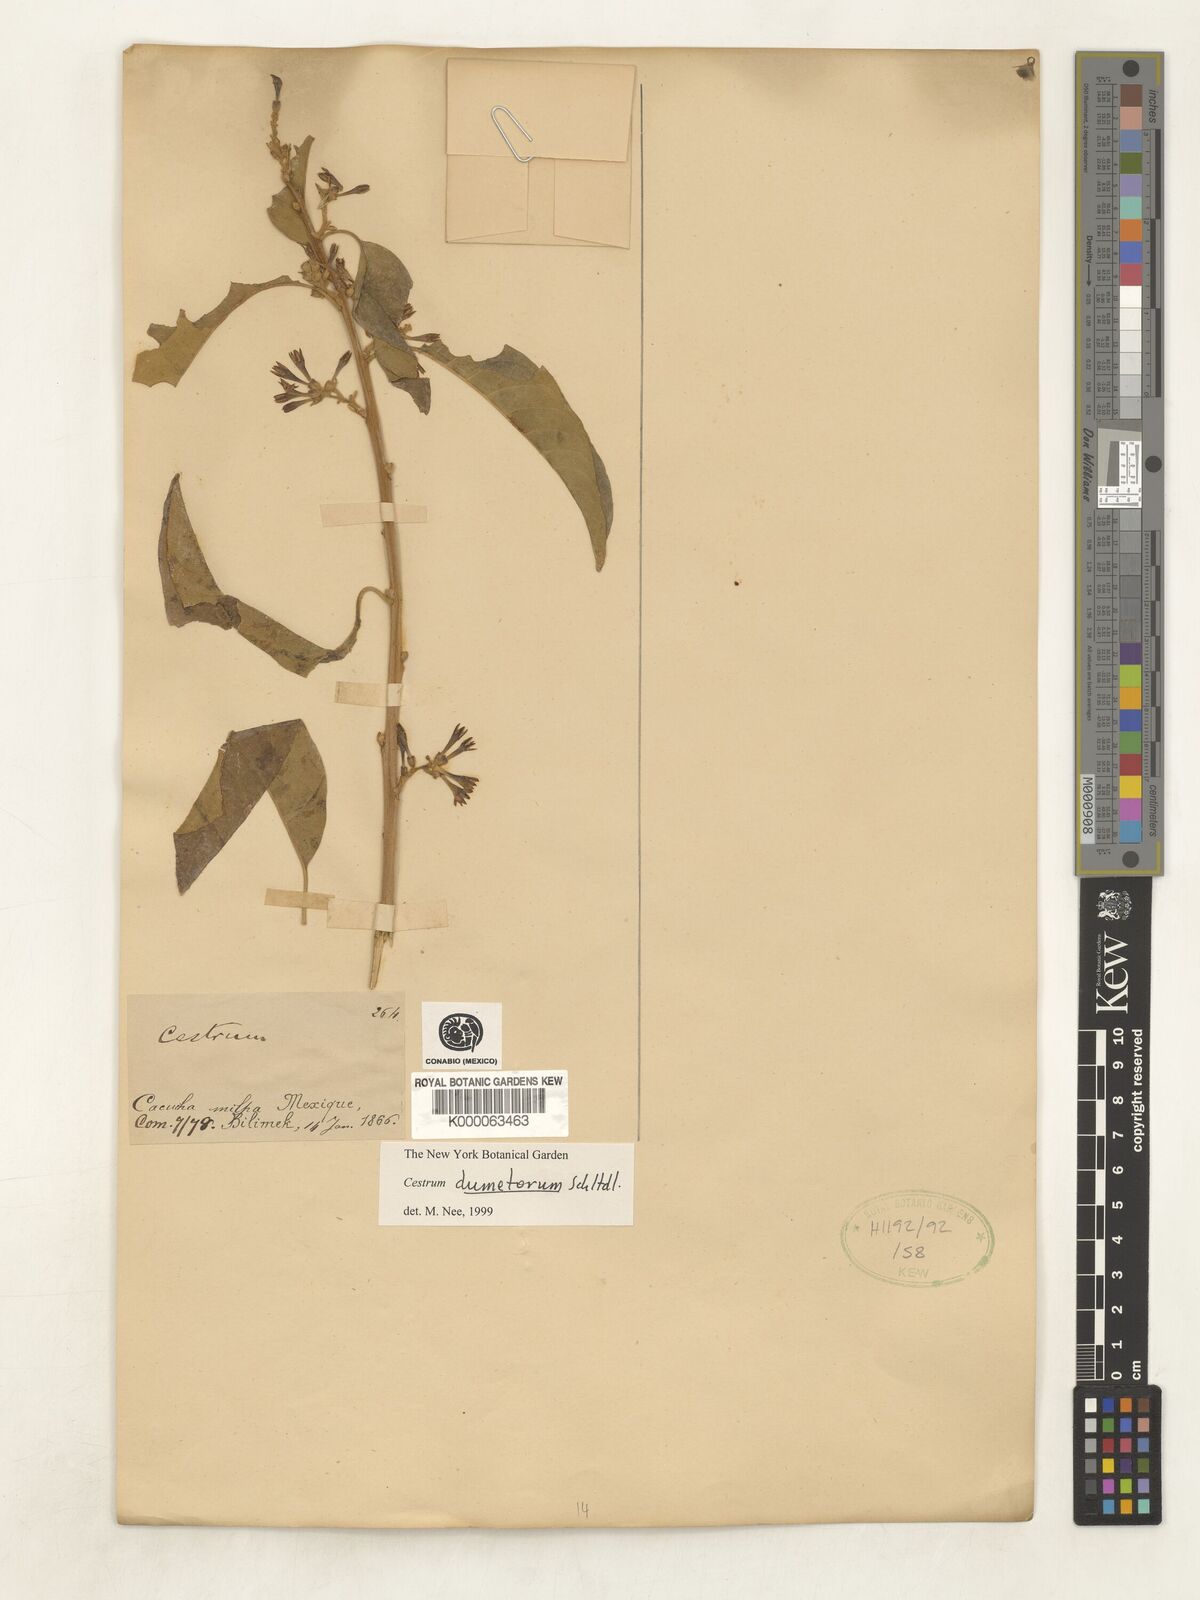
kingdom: Plantae
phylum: Tracheophyta
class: Magnoliopsida
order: Solanales
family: Solanaceae
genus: Cestrum
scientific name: Cestrum dumetorum
